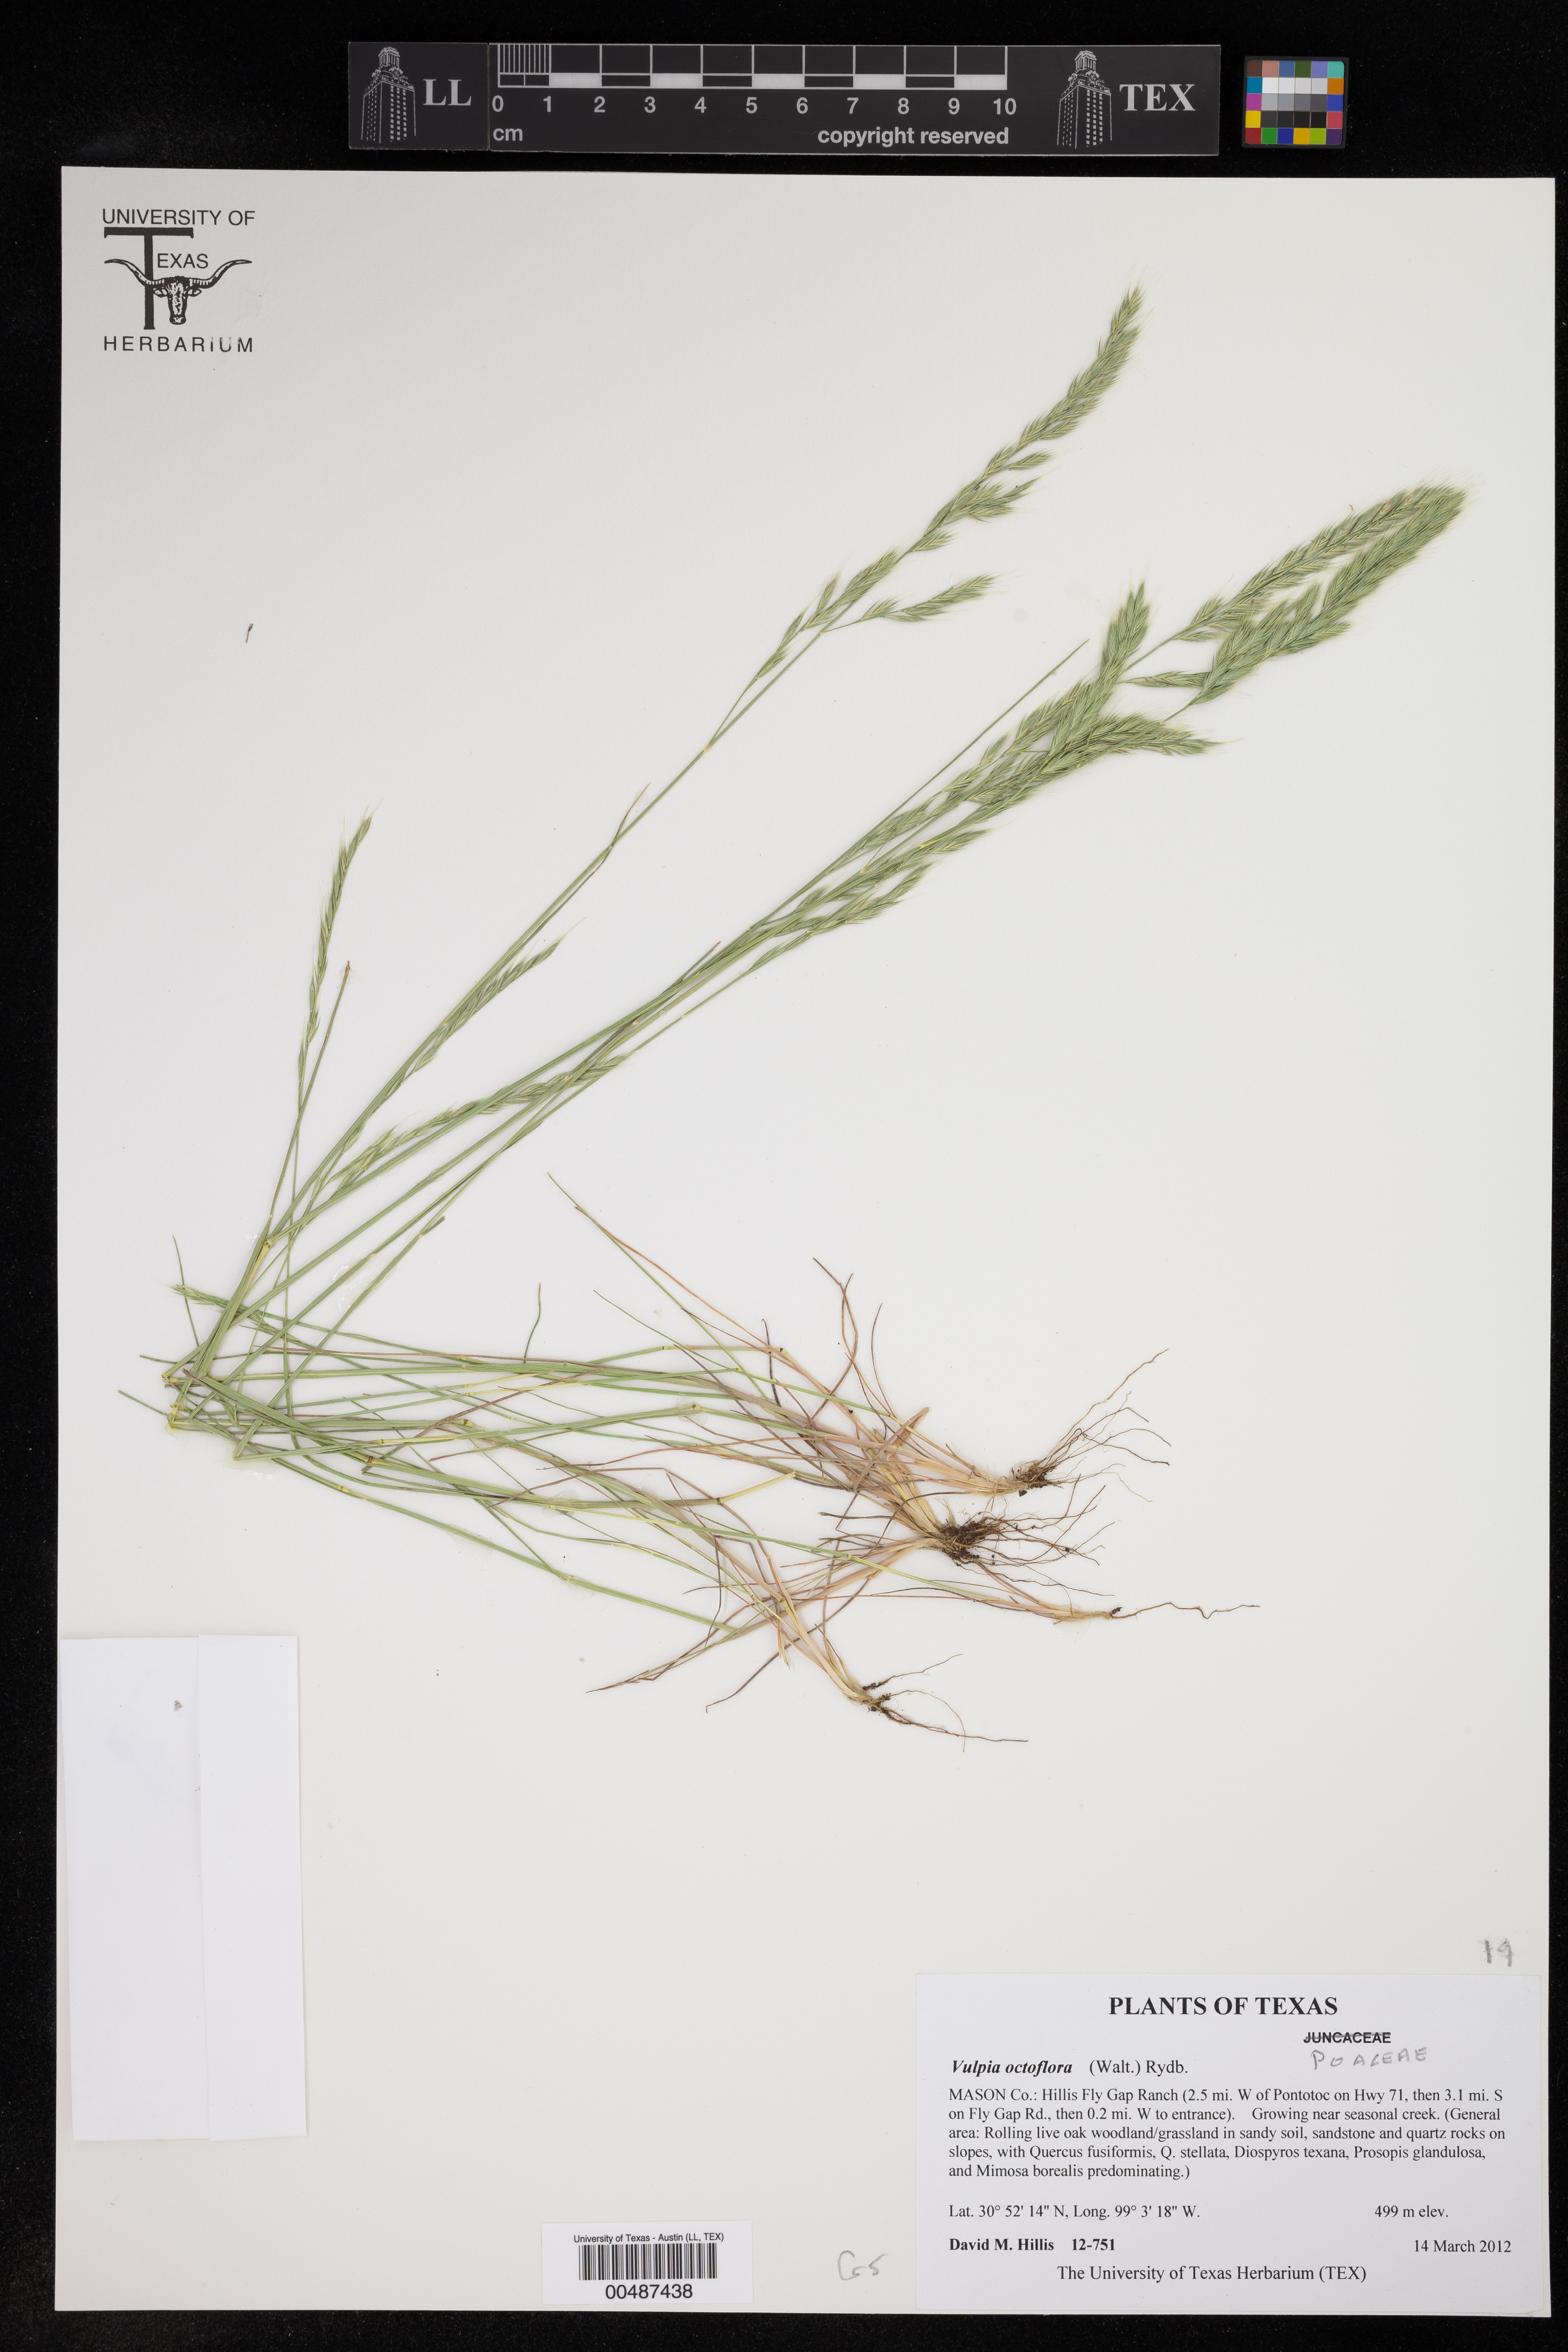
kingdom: Plantae
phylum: Tracheophyta
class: Liliopsida
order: Poales
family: Poaceae
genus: Festuca
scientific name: Festuca octoflora
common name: Sixweeks grass
